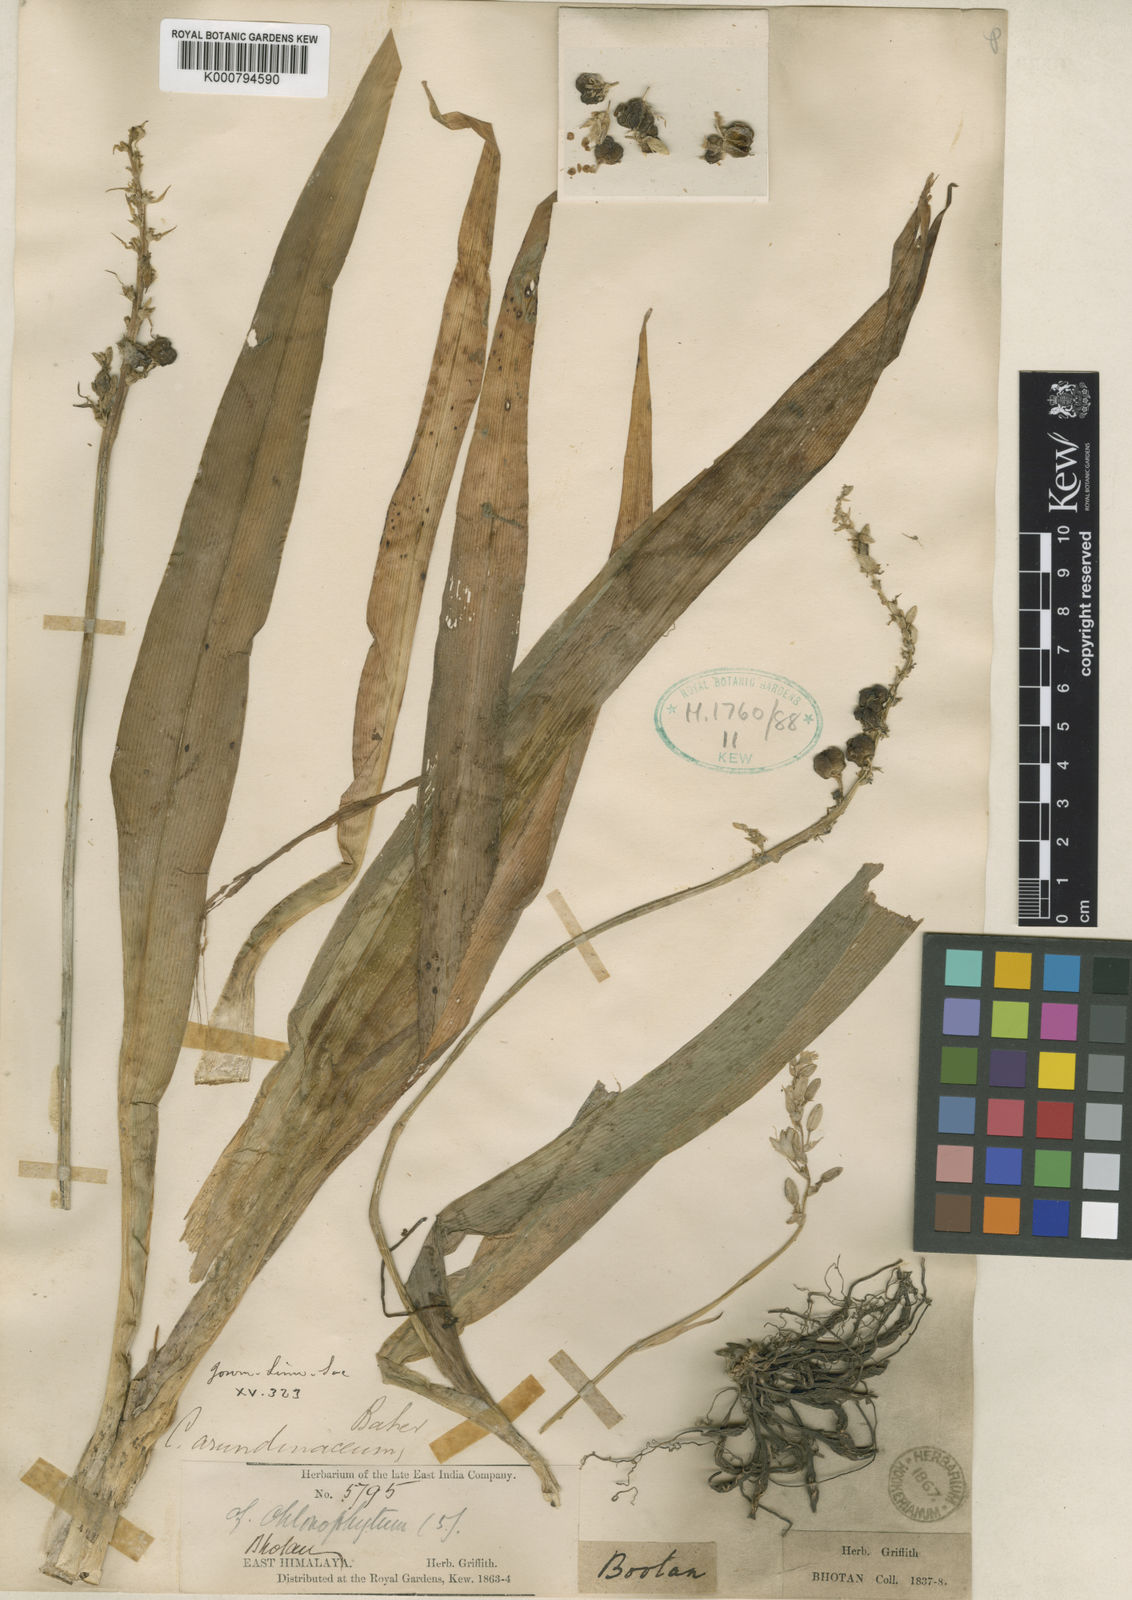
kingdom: Plantae
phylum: Tracheophyta
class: Liliopsida
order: Asparagales
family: Asparagaceae
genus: Chlorophytum
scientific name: Chlorophytum arundinaceum
